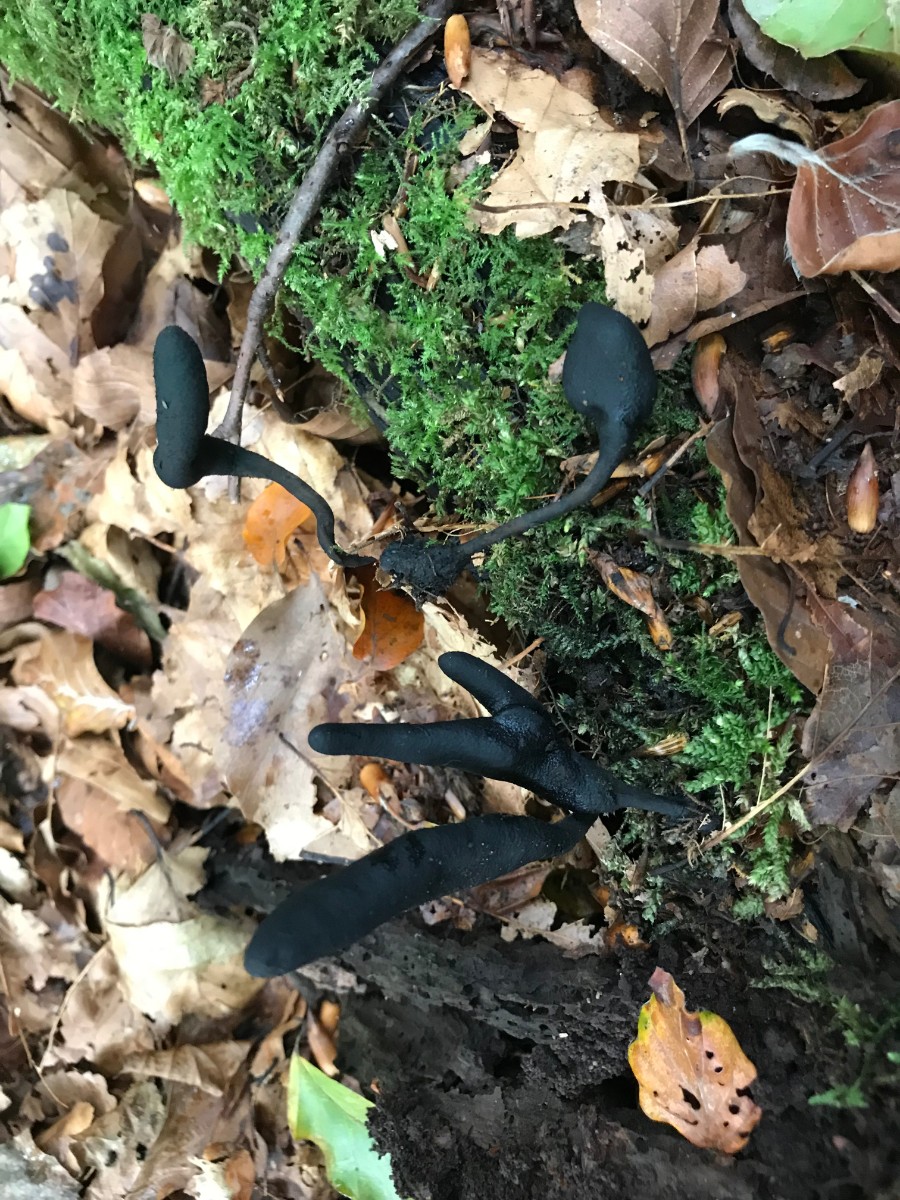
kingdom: Fungi
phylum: Ascomycota
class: Sordariomycetes
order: Xylariales
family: Xylariaceae
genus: Xylaria
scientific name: Xylaria longipes
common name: slank stødsvamp
